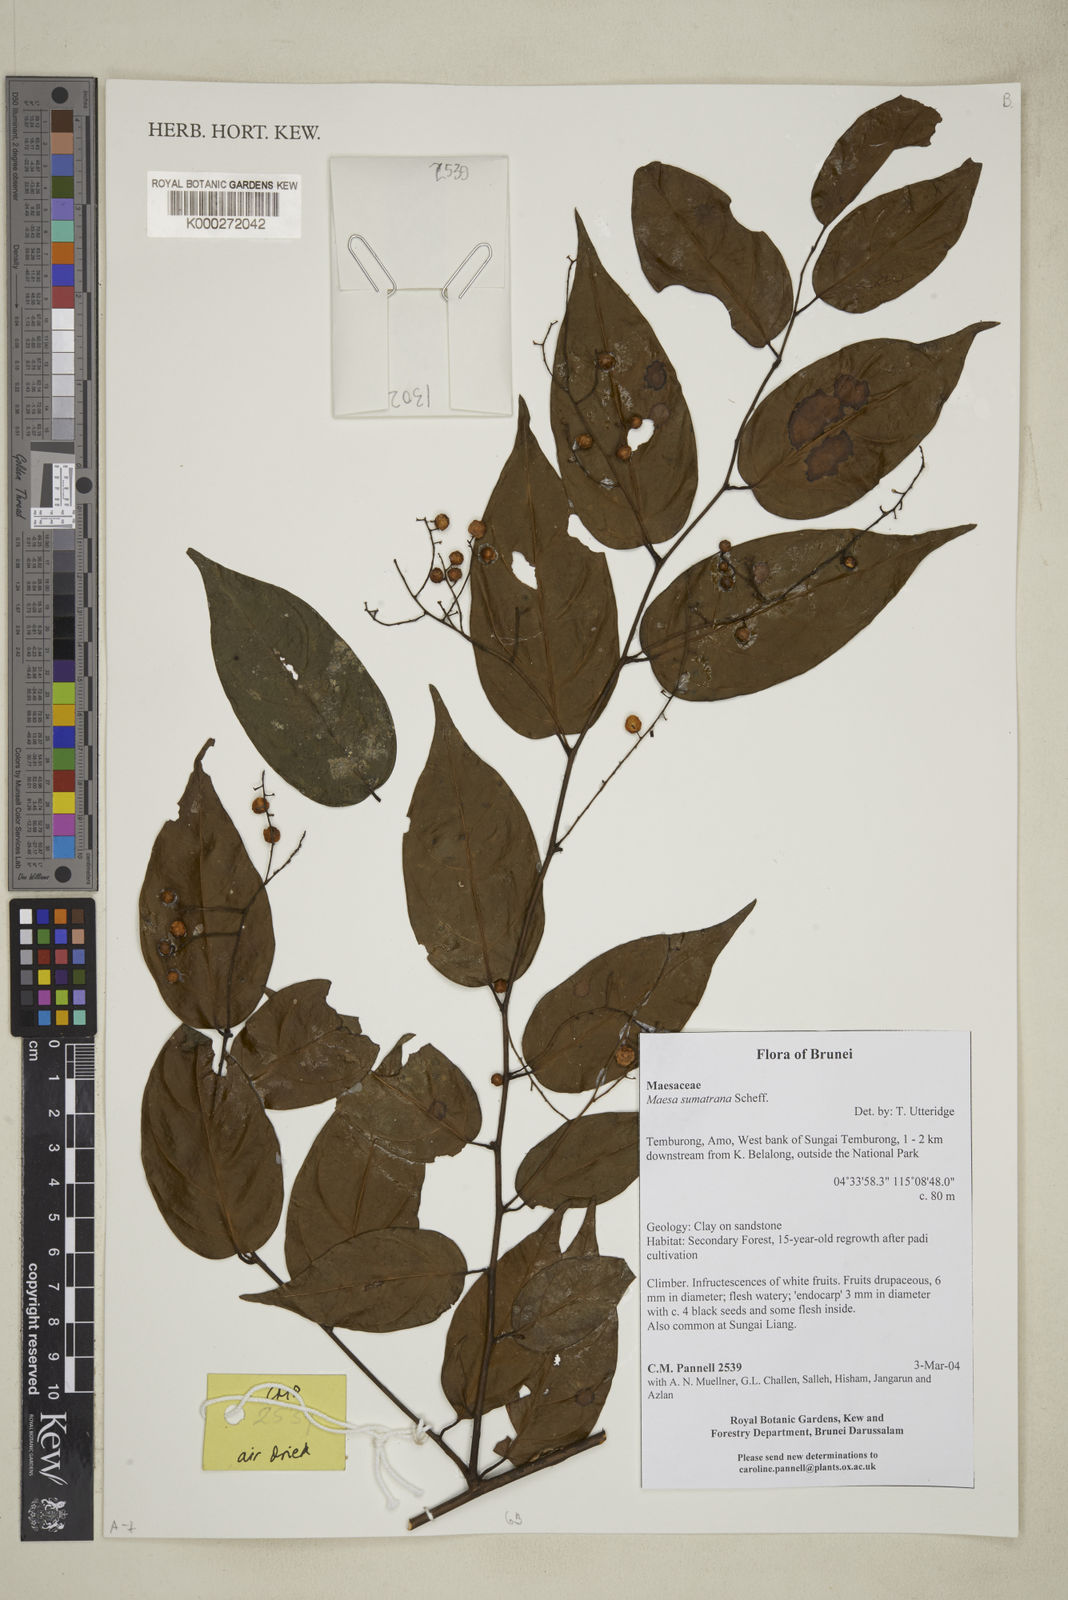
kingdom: Plantae
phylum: Tracheophyta
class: Magnoliopsida
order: Ericales
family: Primulaceae
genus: Maesa
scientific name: Maesa sumatrana
